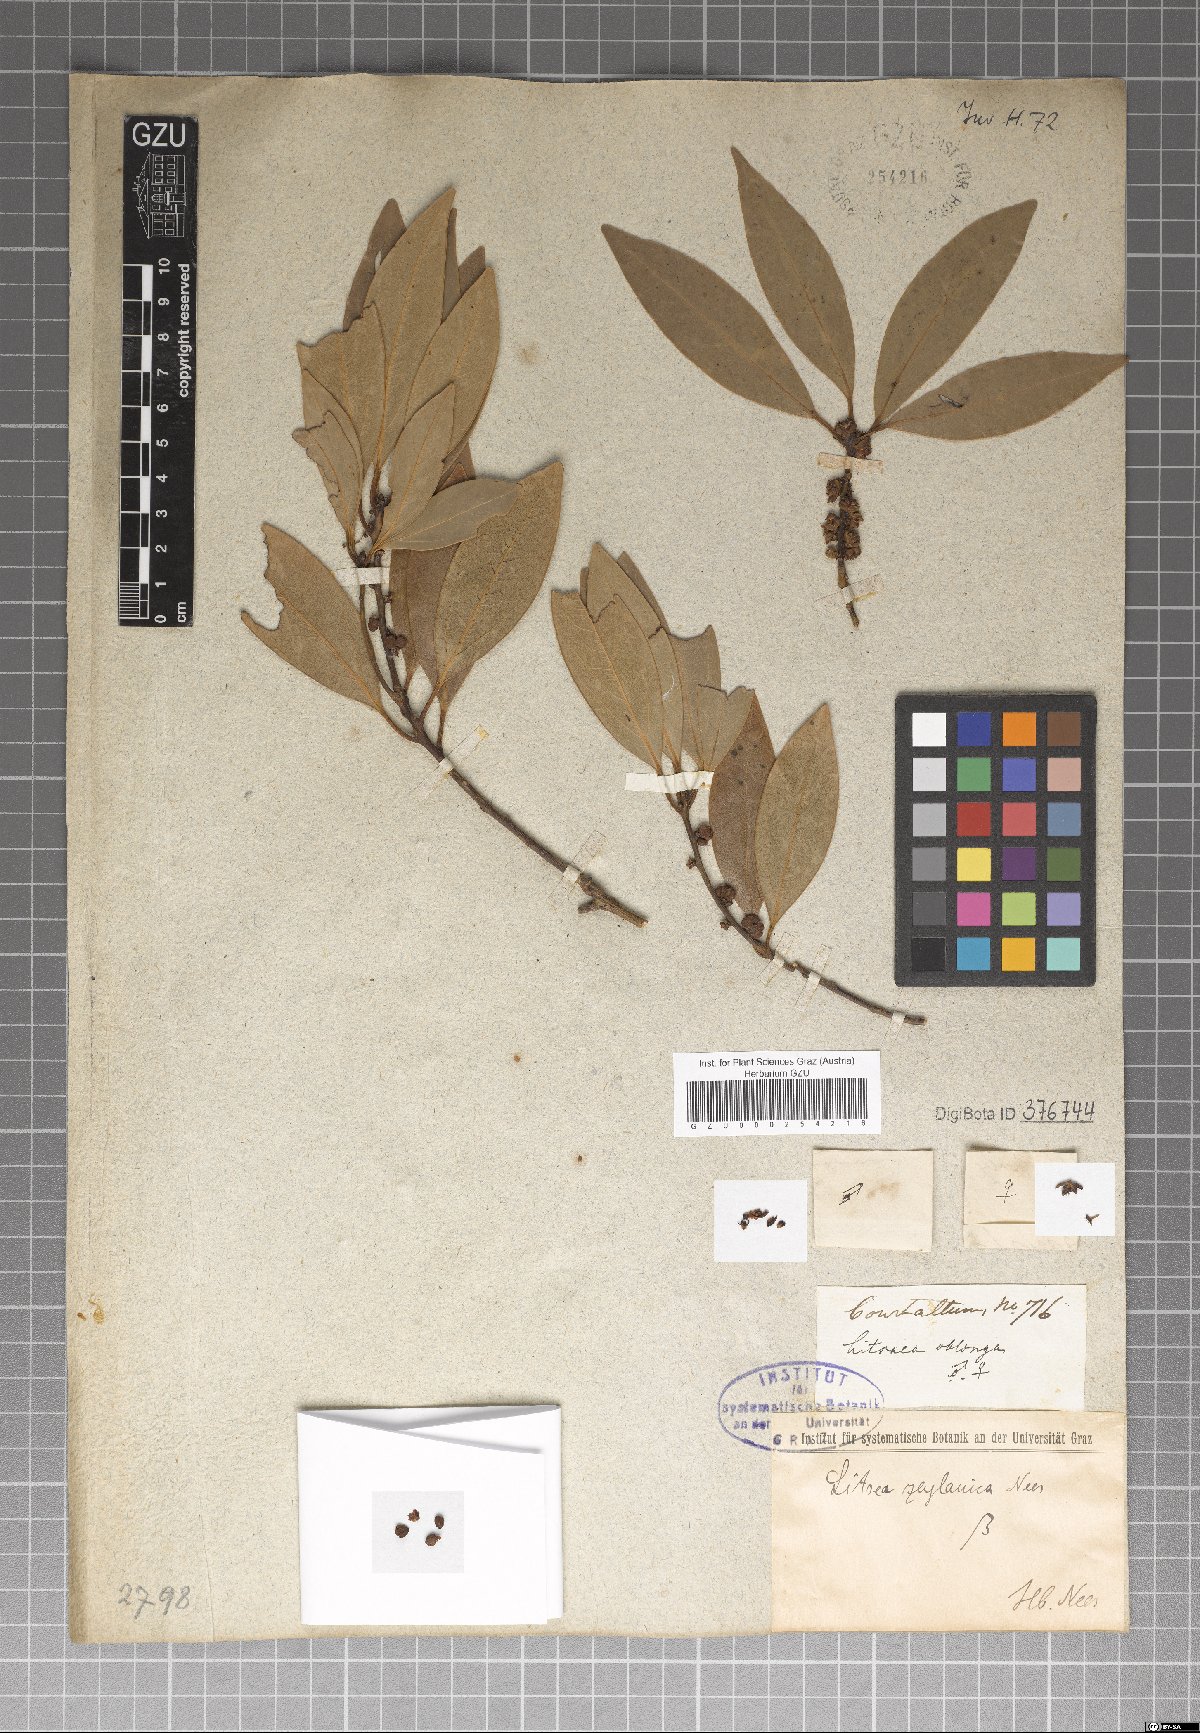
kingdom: Plantae
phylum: Tracheophyta
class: Magnoliopsida
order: Laurales
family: Lauraceae
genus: Neolitsea
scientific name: Neolitsea cassia
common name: Laurel
